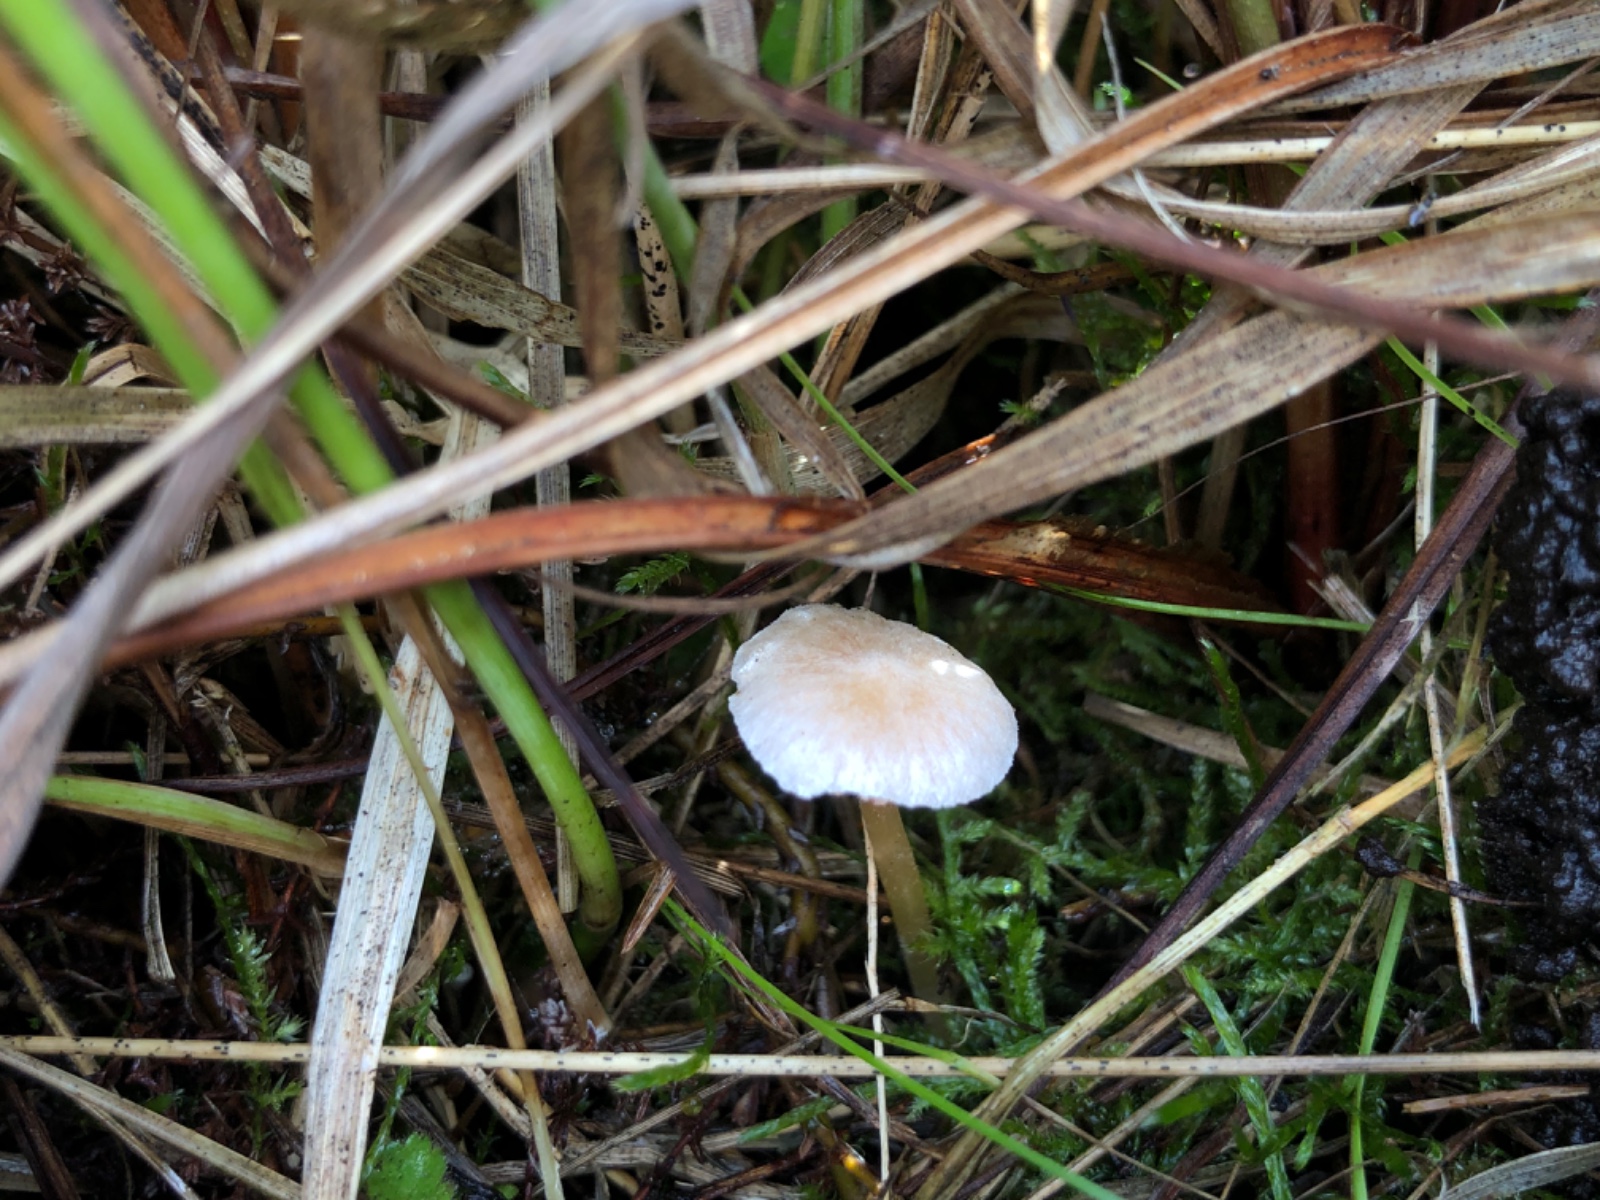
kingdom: Fungi
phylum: Basidiomycota
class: Agaricomycetes
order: Agaricales
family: Entolomataceae
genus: Entoloma
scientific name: Entoloma sericellum
